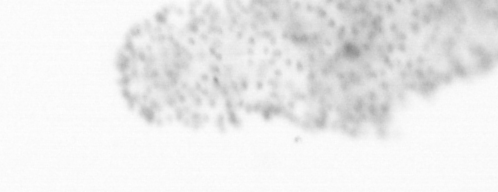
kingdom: Animalia
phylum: Chordata
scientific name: Chordata
